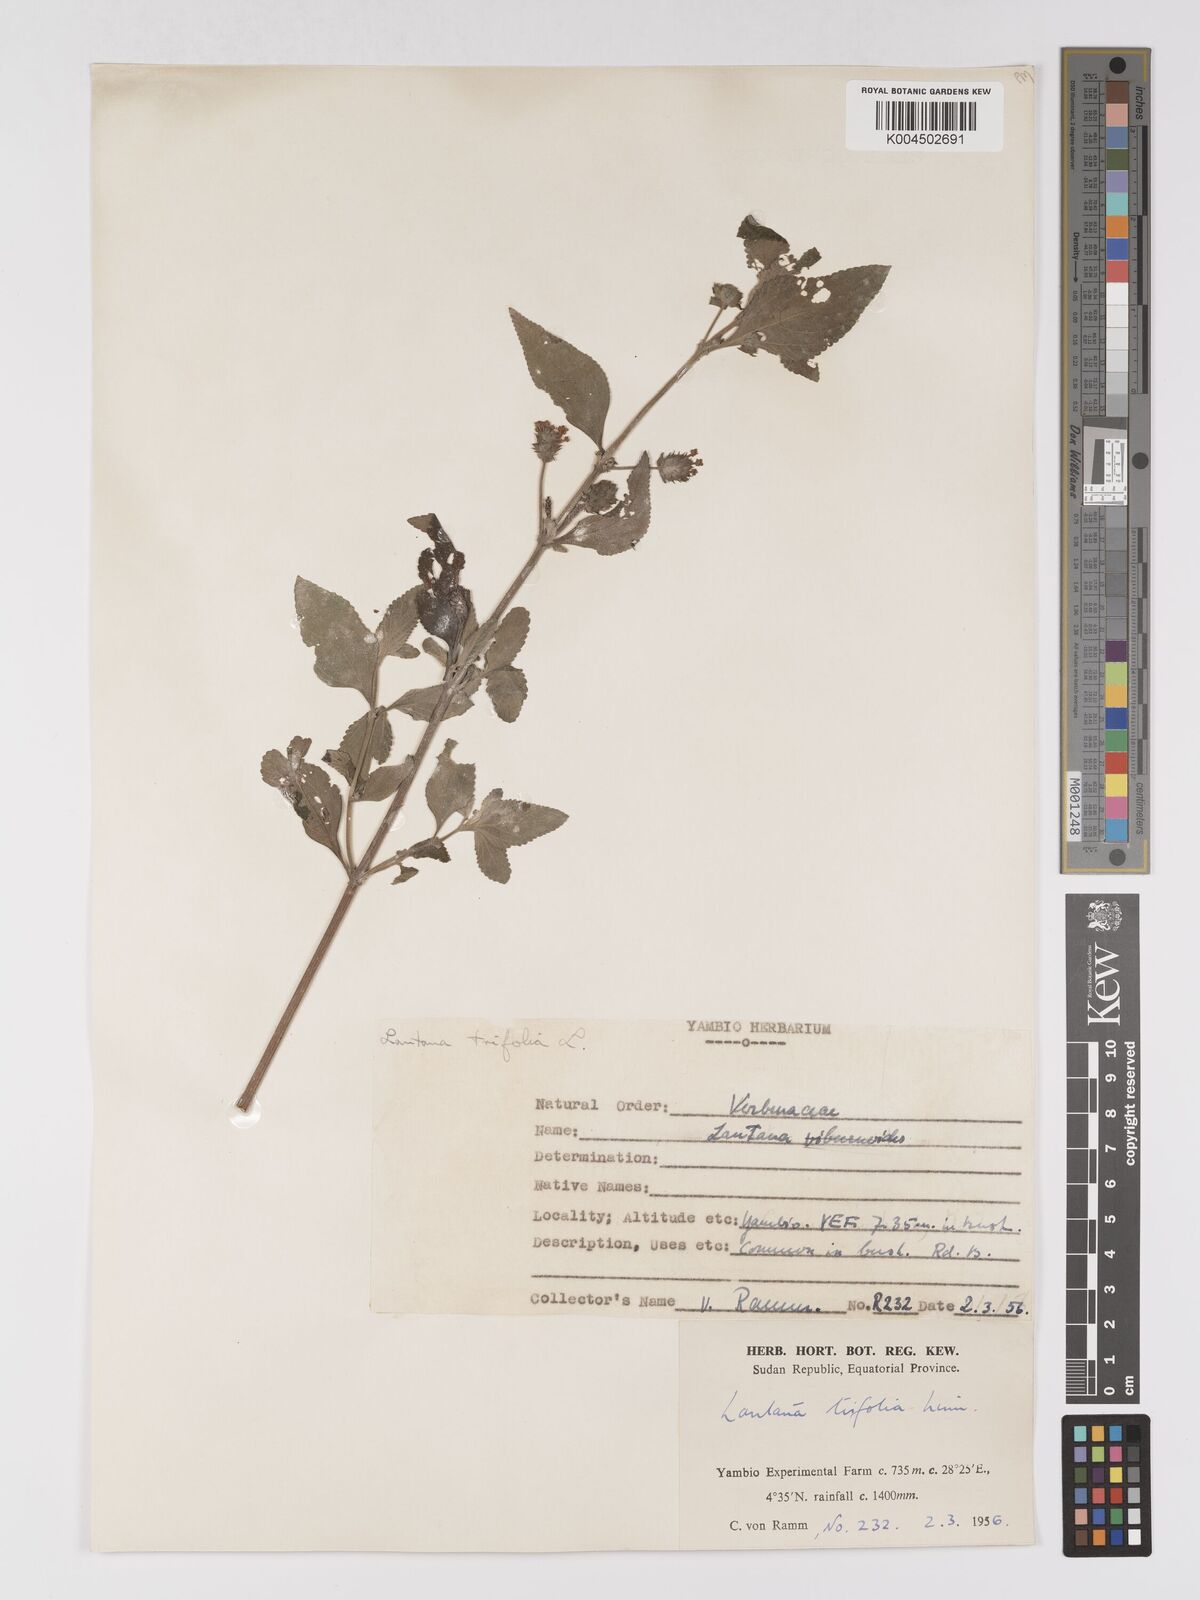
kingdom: Plantae
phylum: Tracheophyta
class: Magnoliopsida
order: Lamiales
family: Verbenaceae
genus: Lantana
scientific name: Lantana trifolia
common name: Sweet-sage
